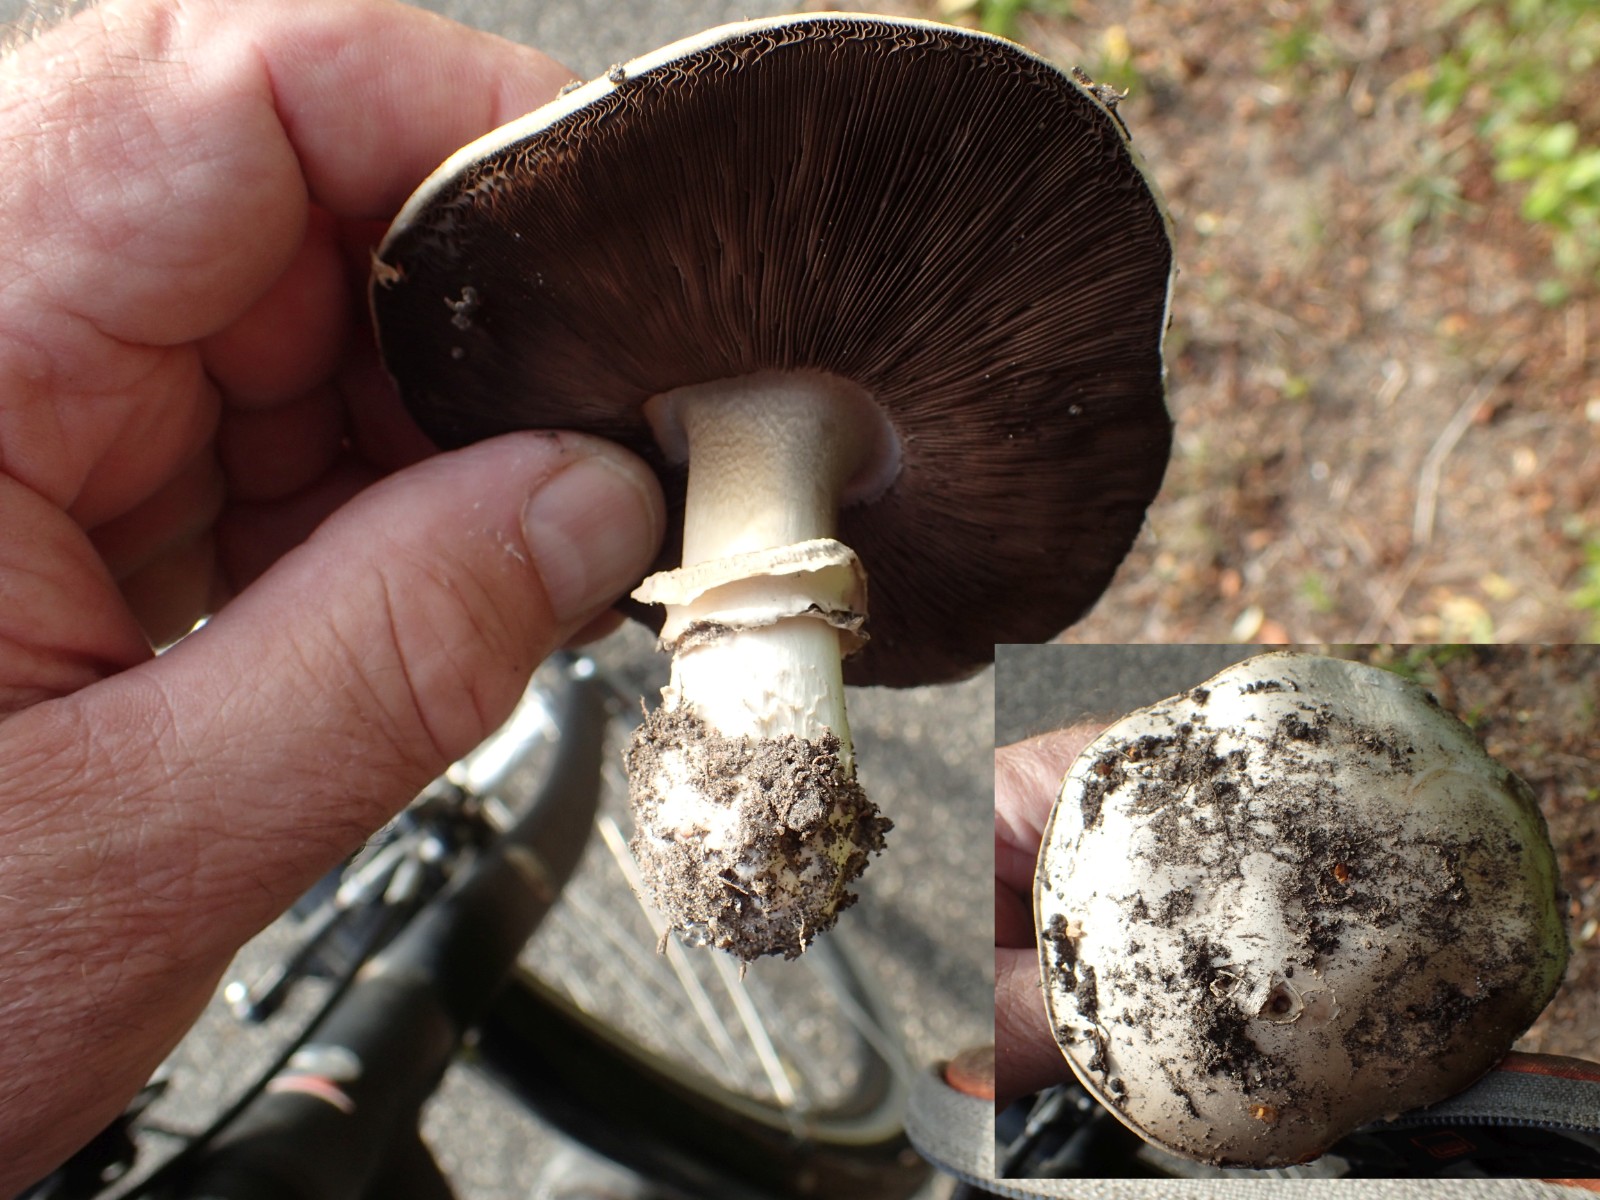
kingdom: Fungi
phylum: Basidiomycota
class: Agaricomycetes
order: Agaricales
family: Agaricaceae
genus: Agaricus
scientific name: Agaricus bitorquis
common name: vej-champignon
